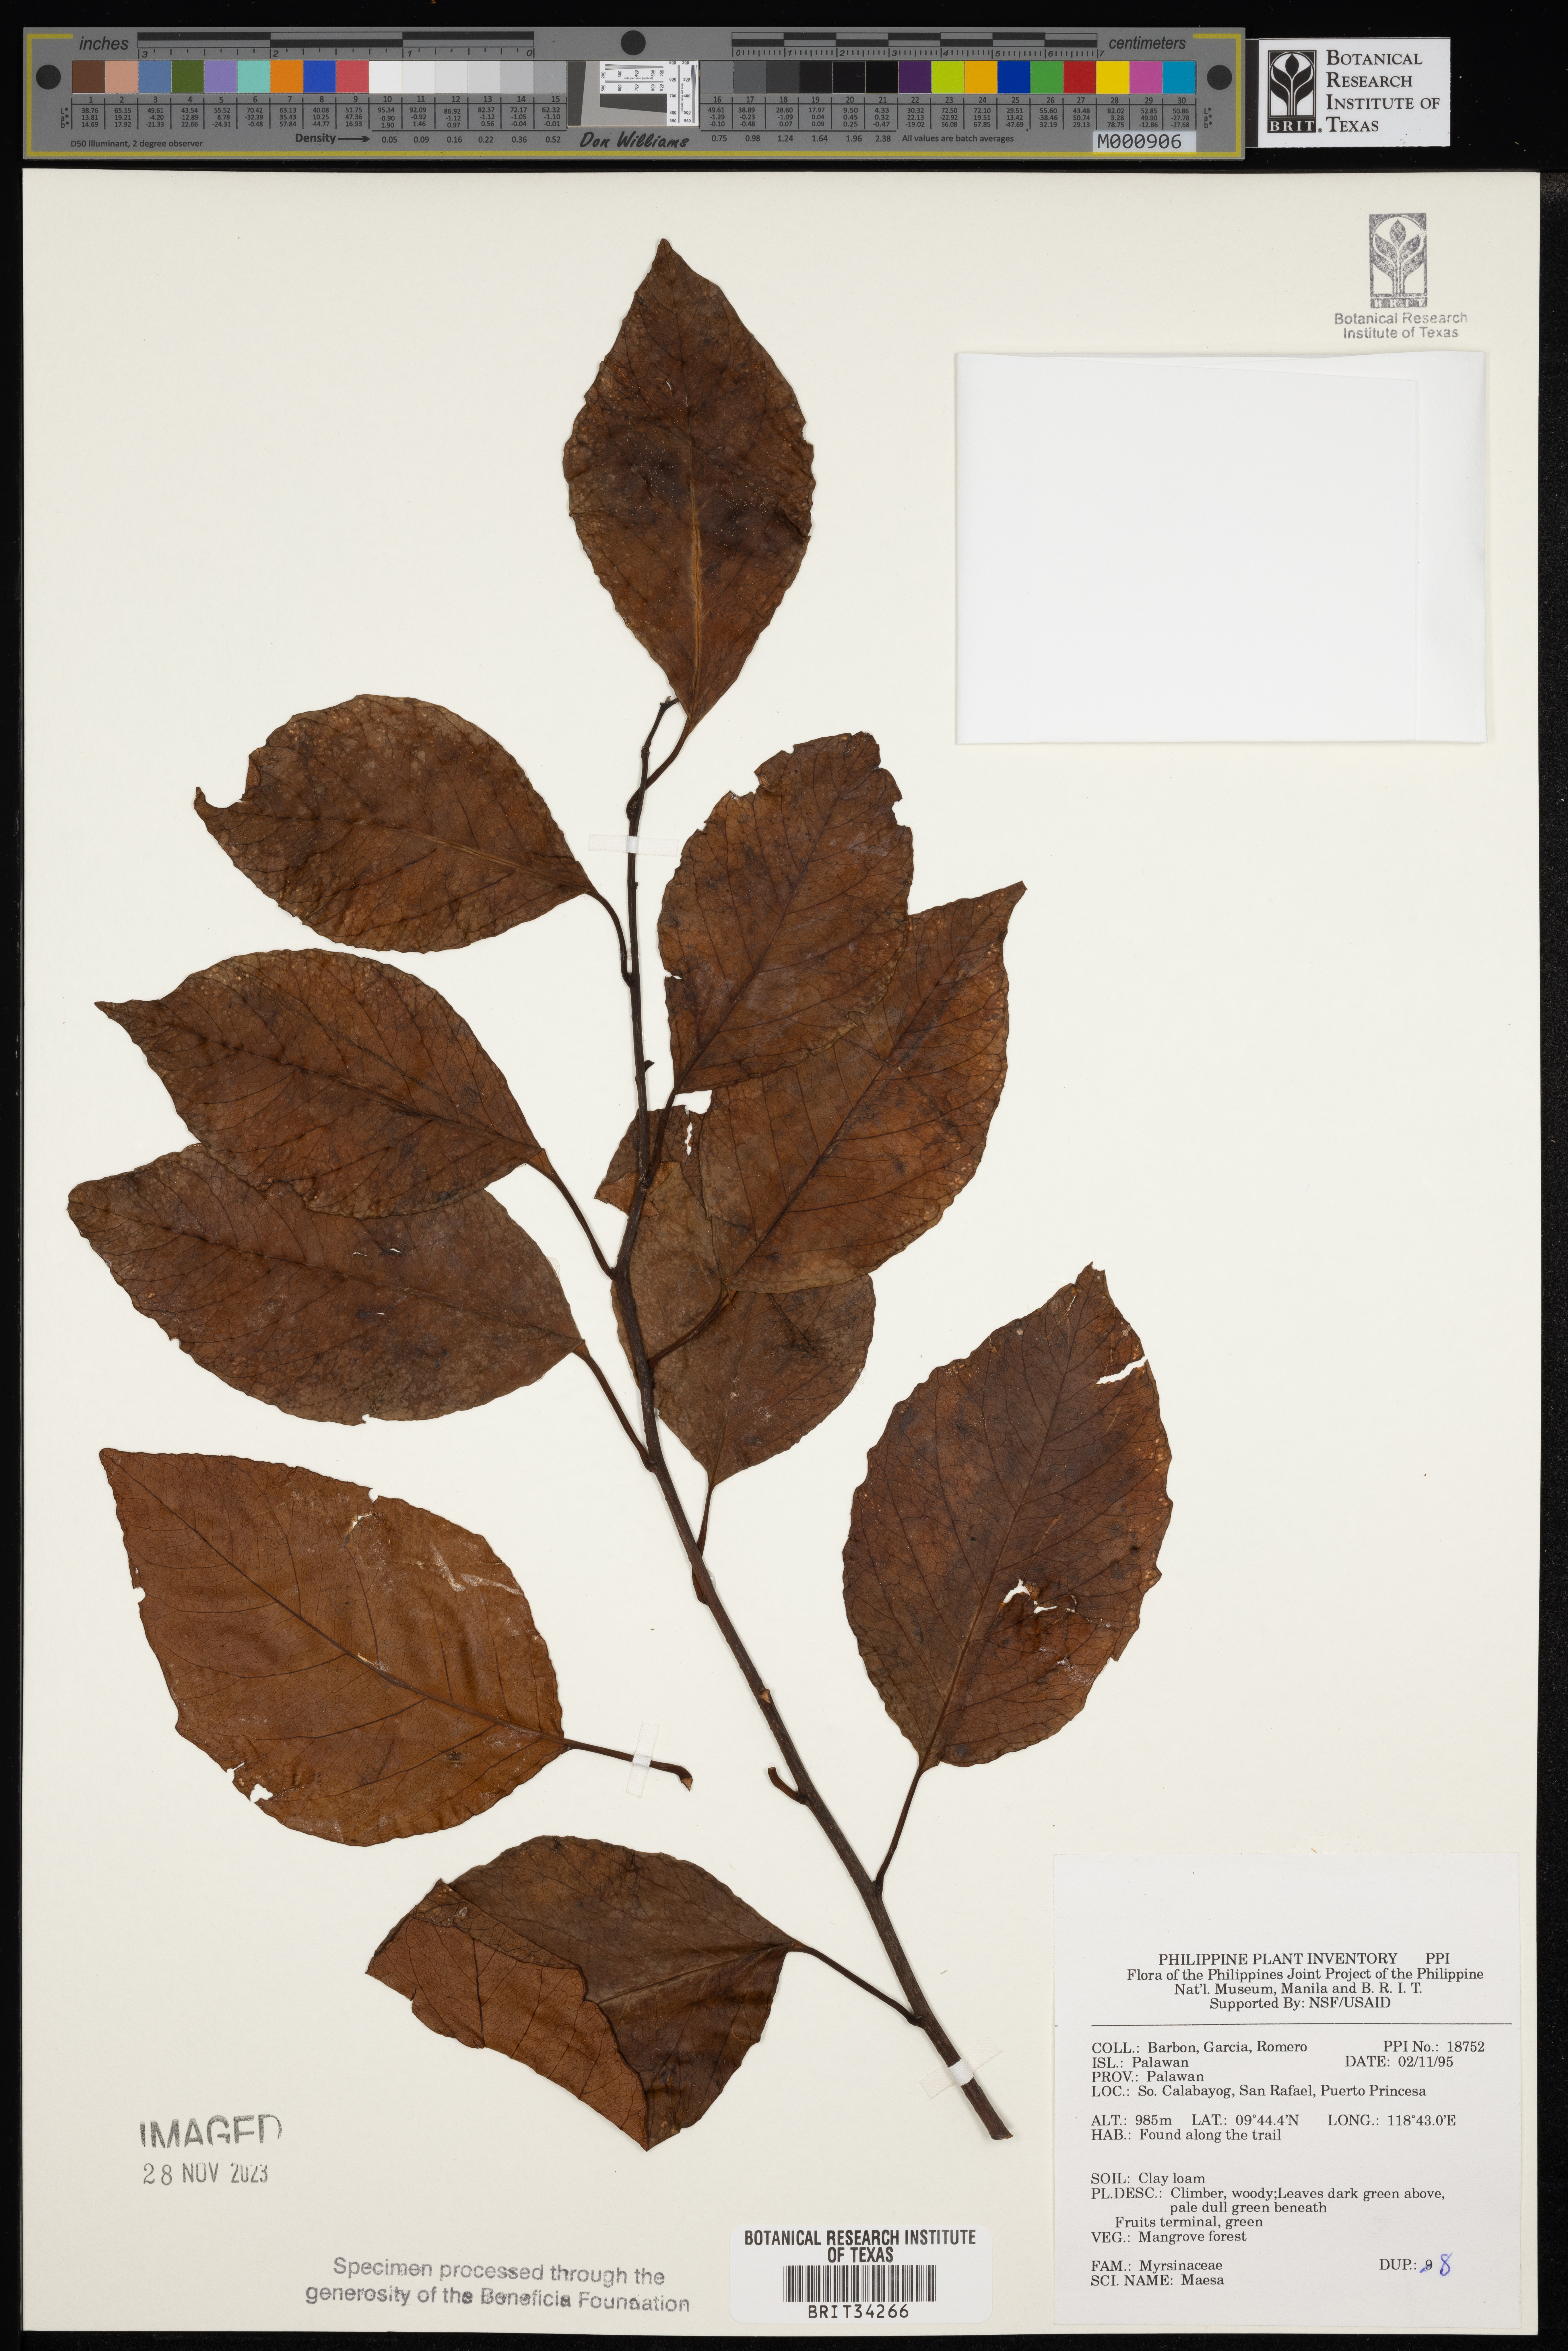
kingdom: Plantae
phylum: Tracheophyta
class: Magnoliopsida
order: Ericales
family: Primulaceae
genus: Maesa
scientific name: Maesa
